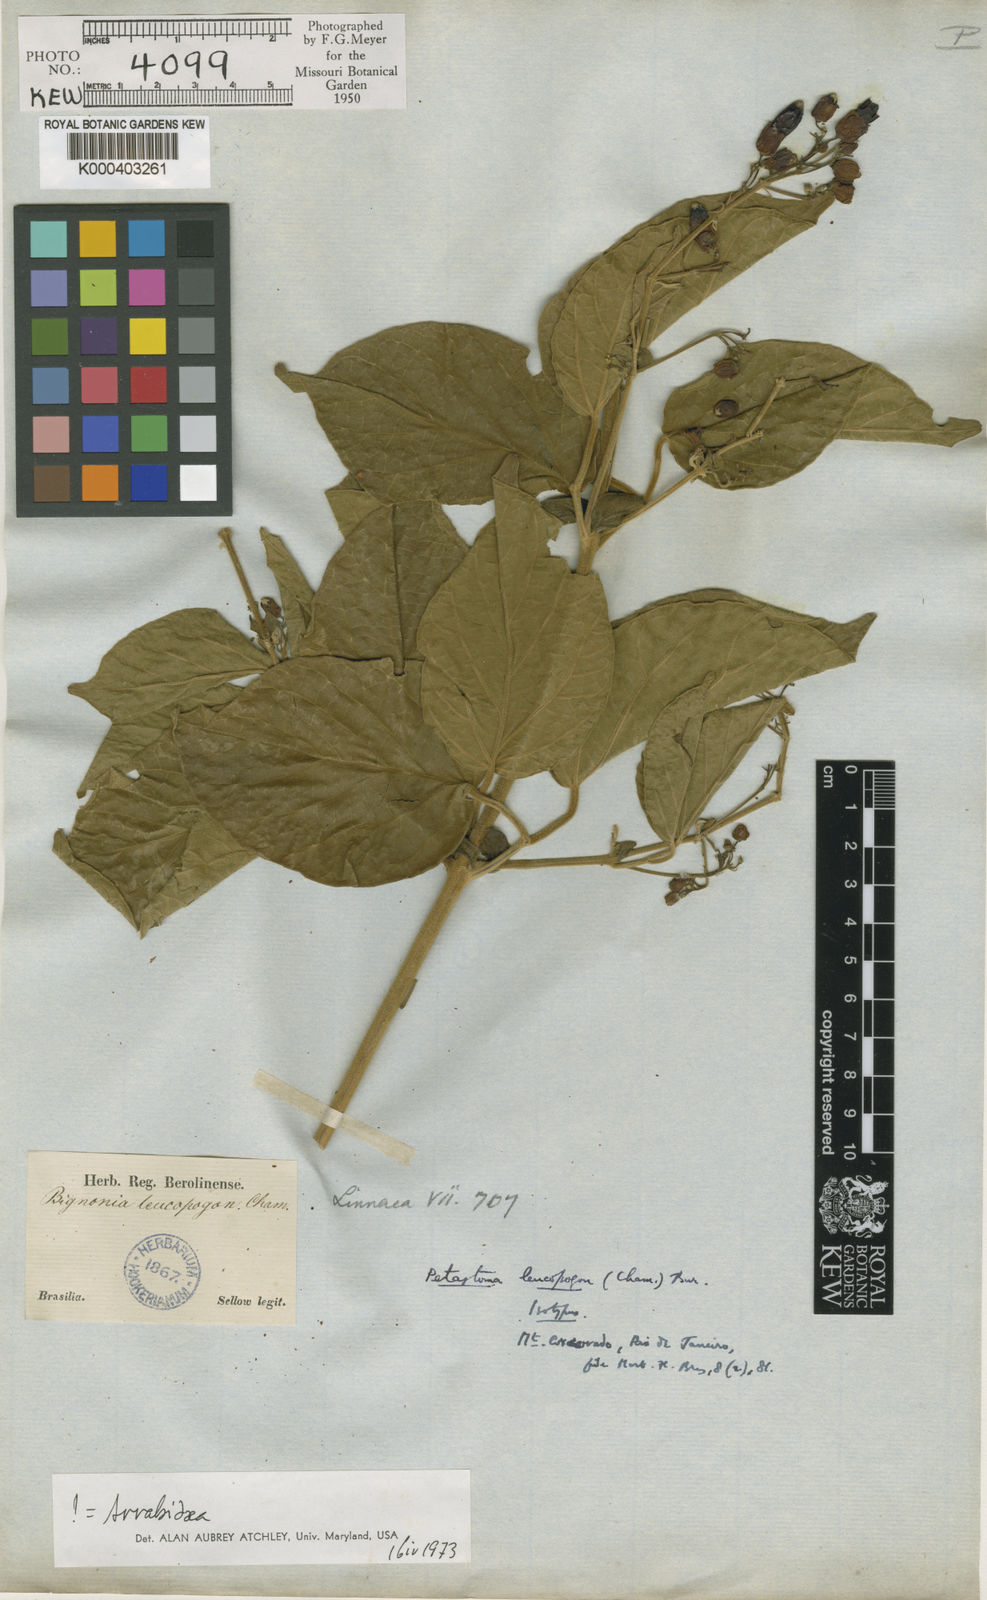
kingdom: Plantae
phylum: Tracheophyta
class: Magnoliopsida
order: Lamiales
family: Bignoniaceae
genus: Fridericia
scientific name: Fridericia leucopogon
